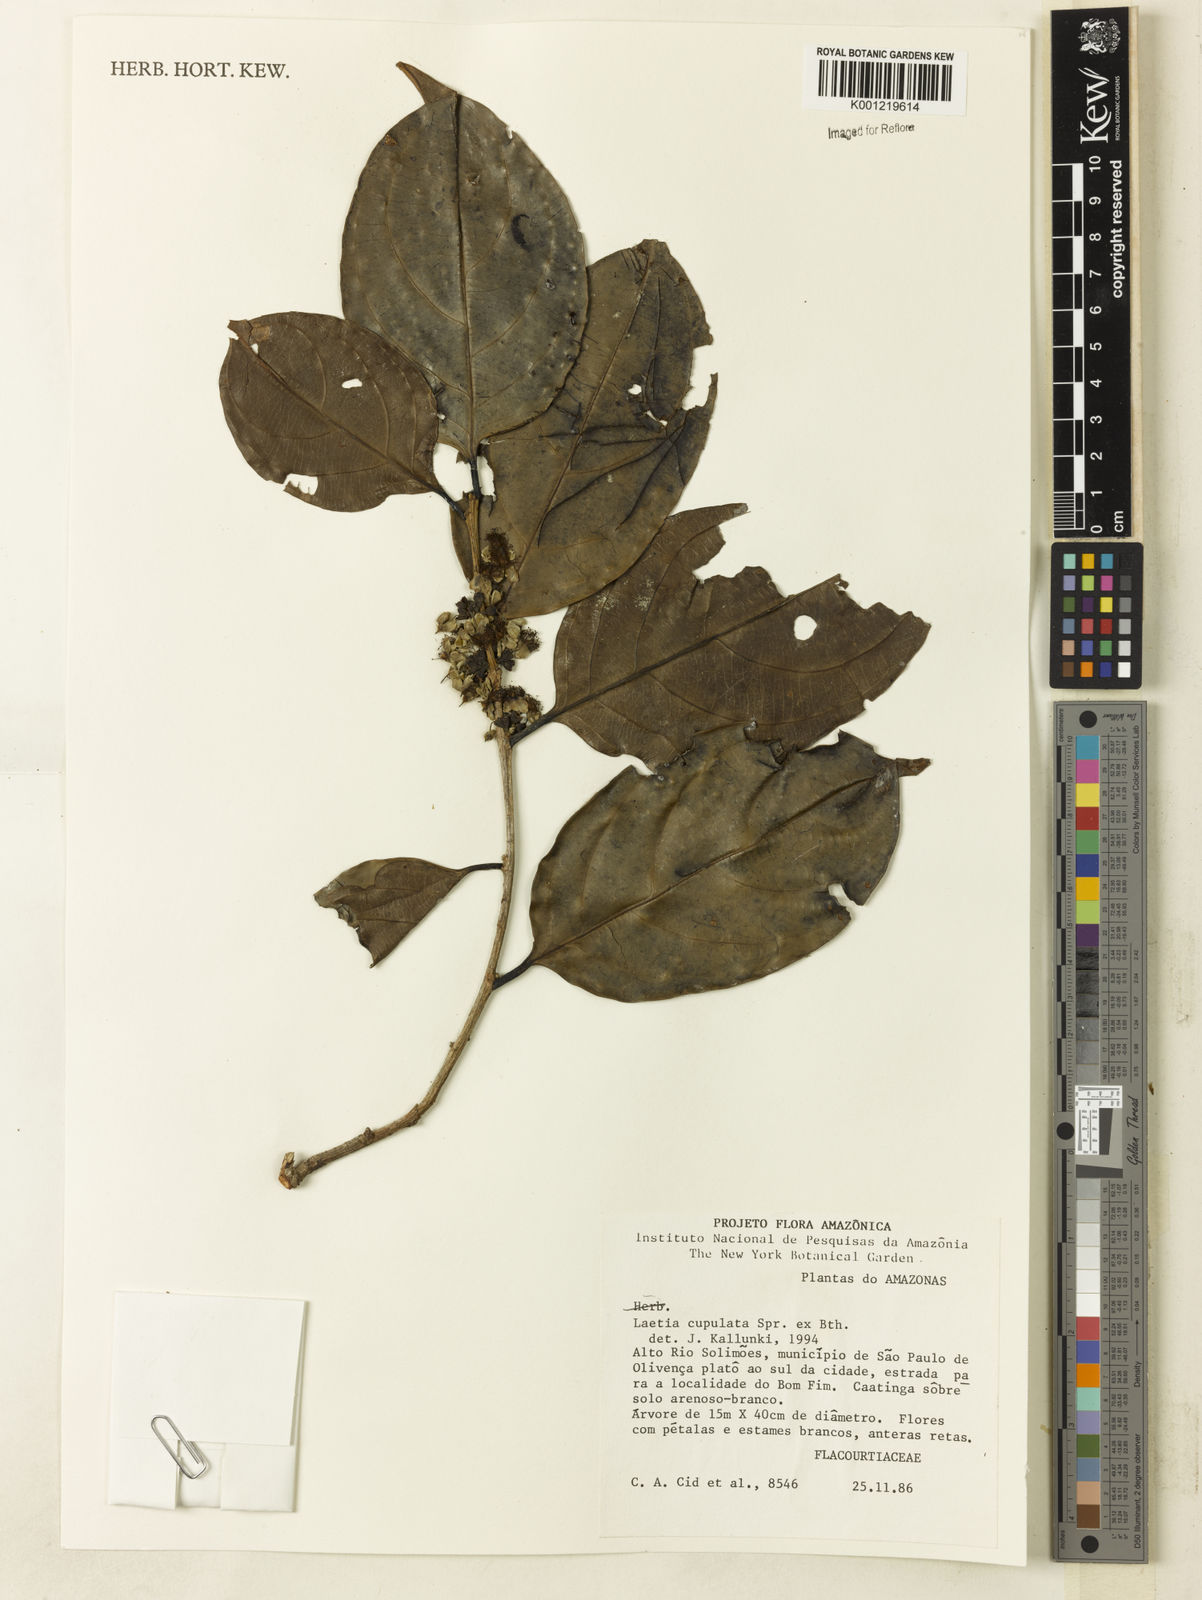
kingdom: Plantae
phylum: Tracheophyta
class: Magnoliopsida
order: Malpighiales
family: Salicaceae
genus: Irenodendron
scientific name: Irenodendron cupulatum
